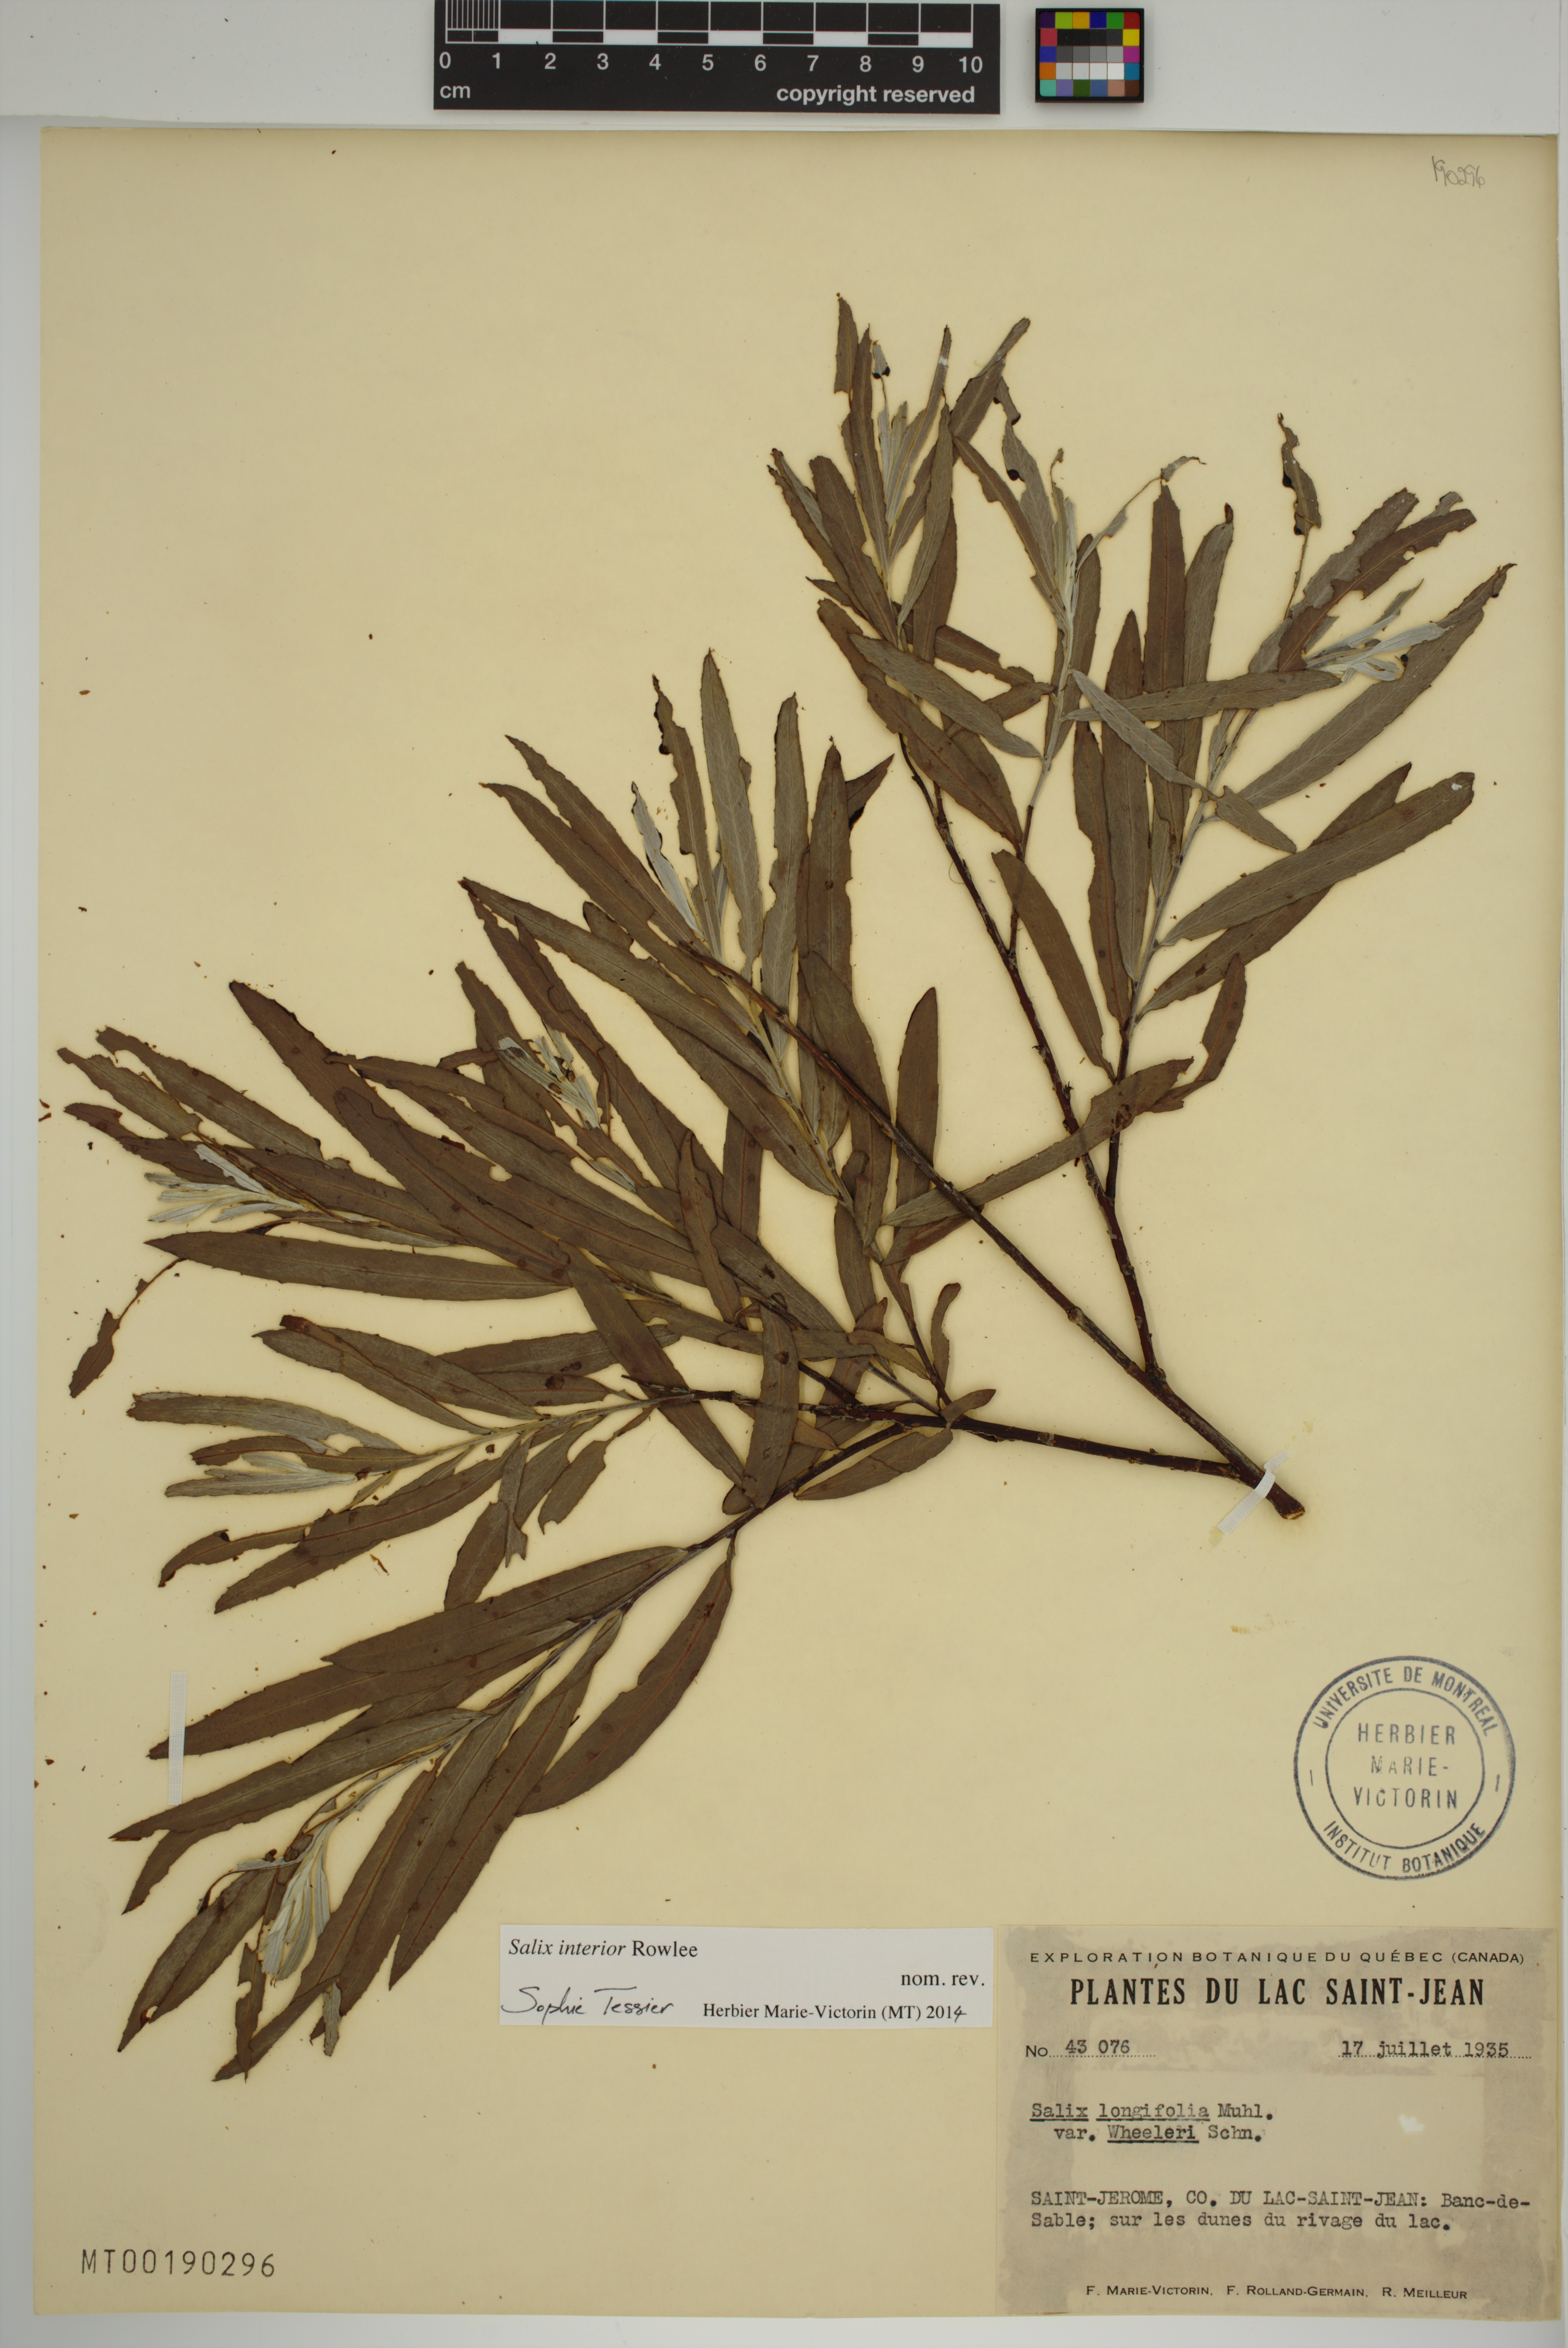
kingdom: Plantae
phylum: Tracheophyta
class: Magnoliopsida
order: Malpighiales
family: Salicaceae
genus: Salix
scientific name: Salix interior
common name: Sandbar willow
